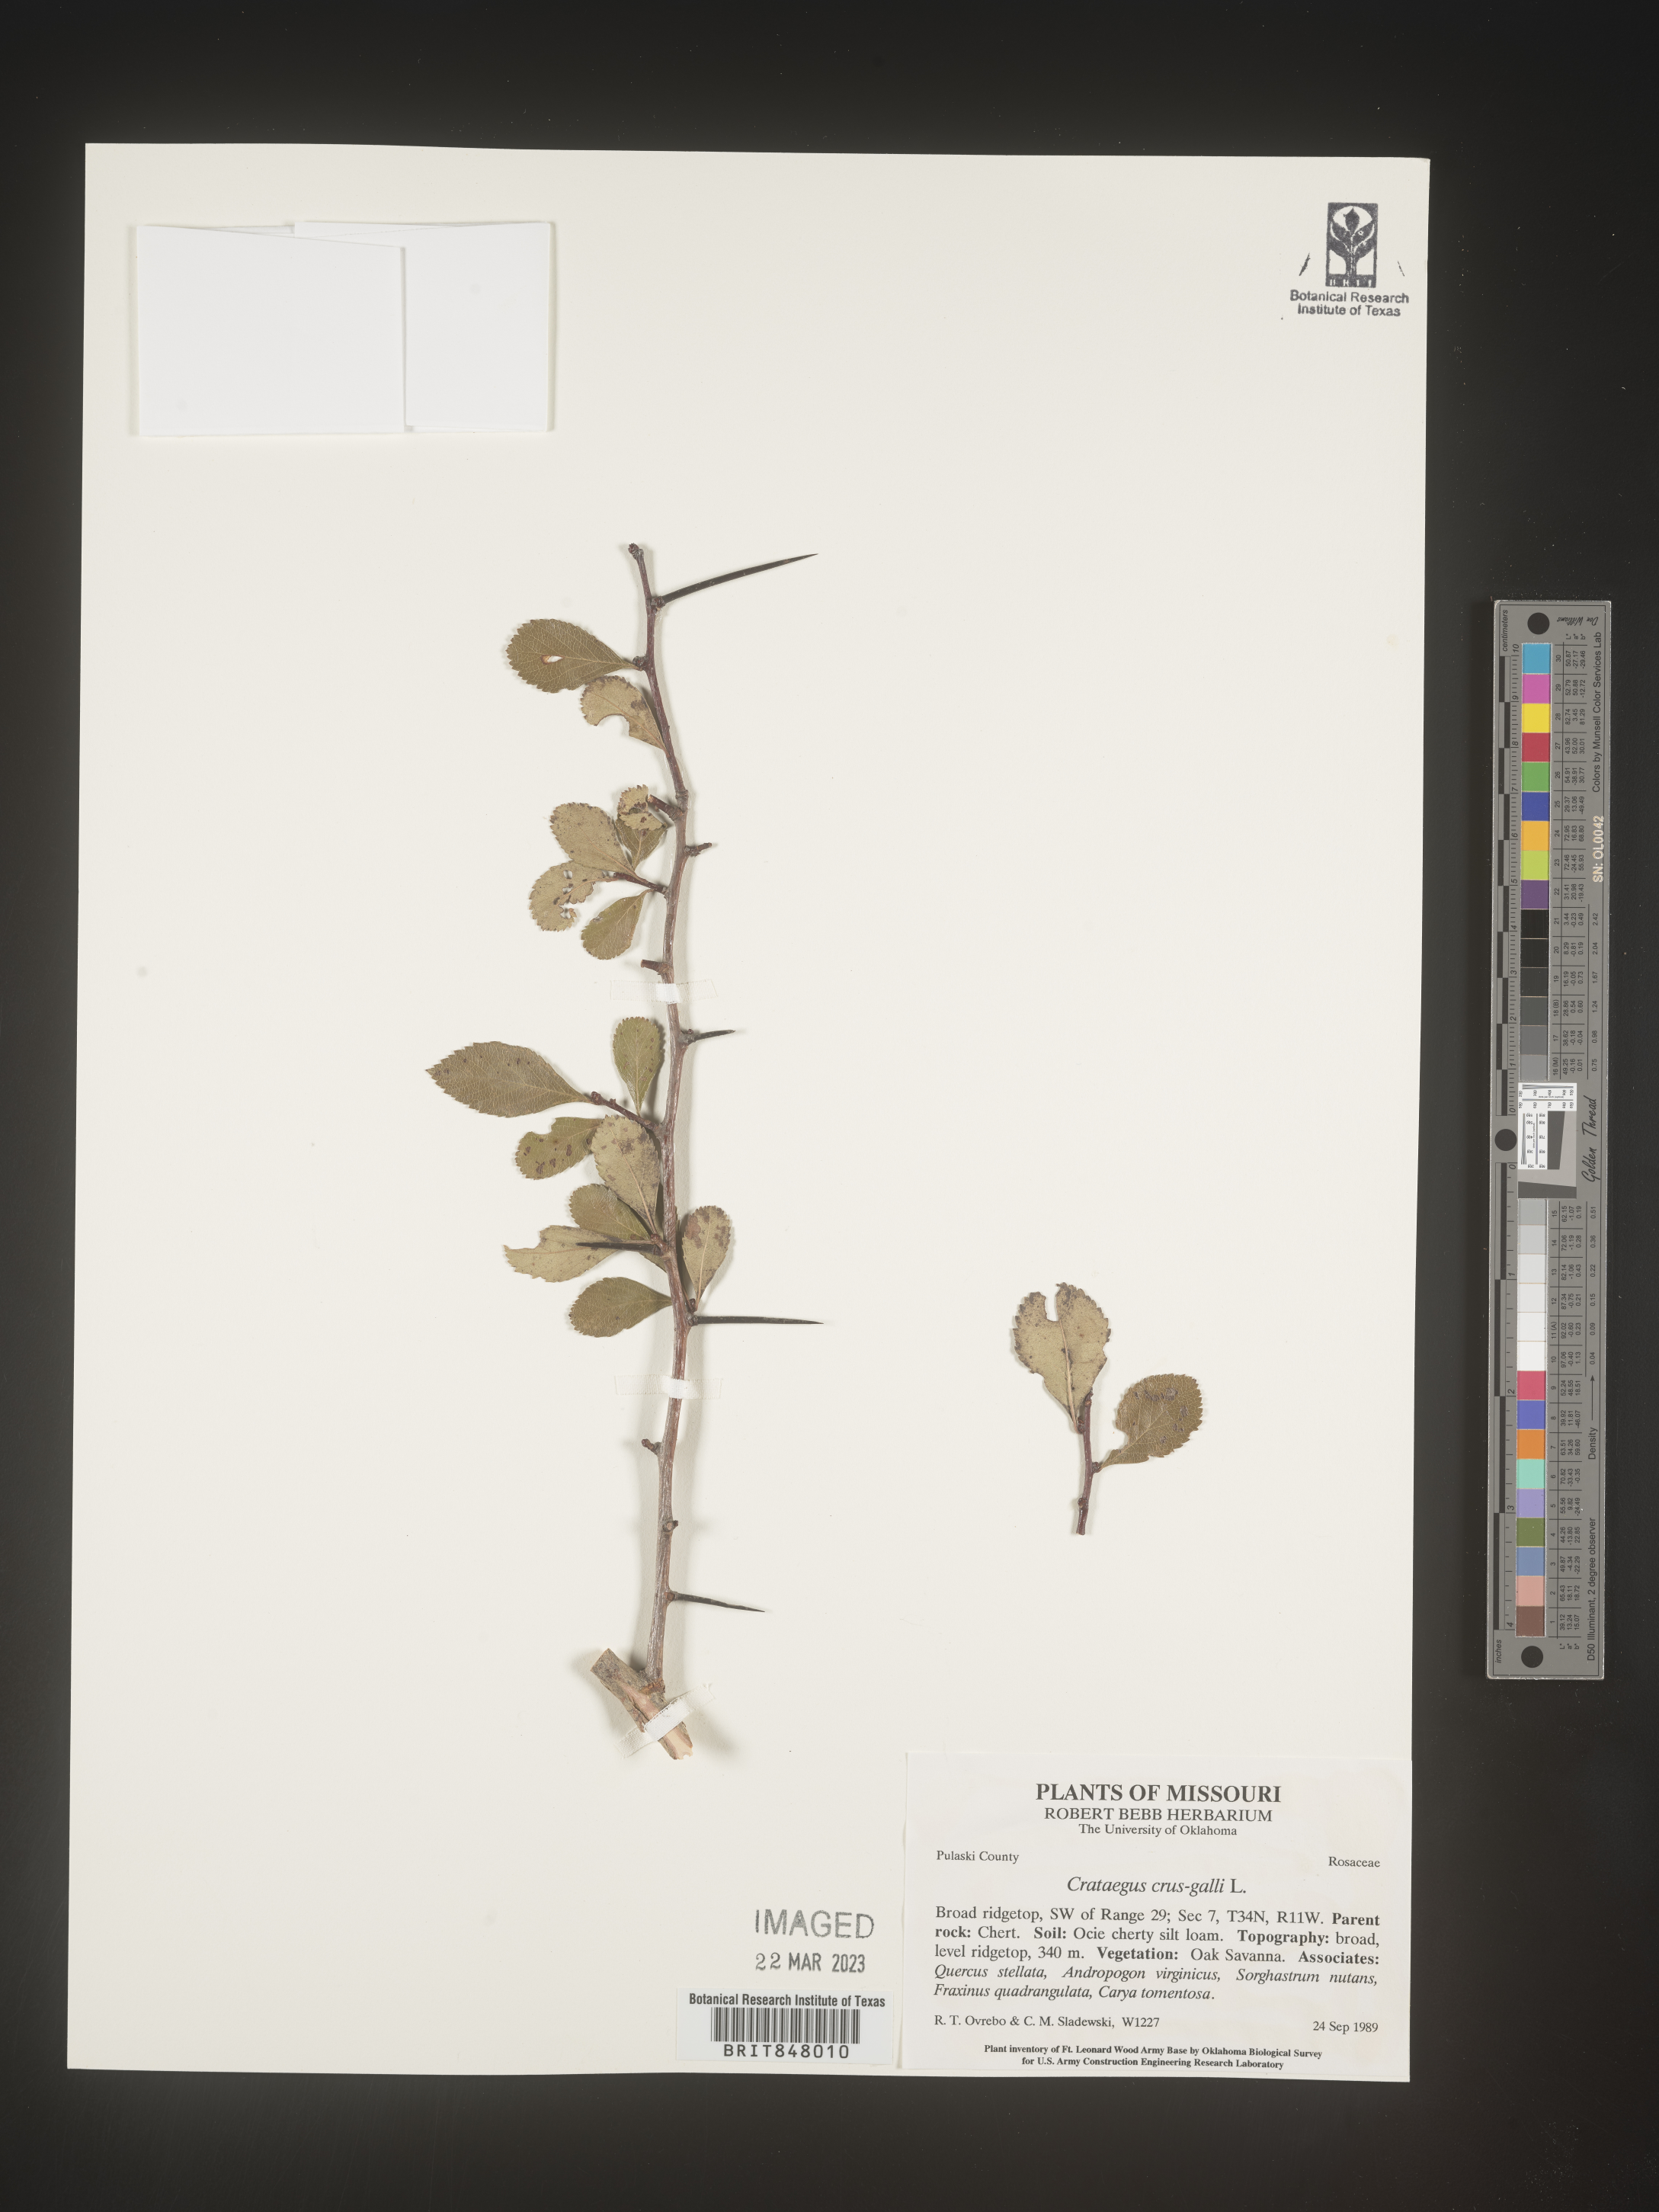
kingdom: Plantae
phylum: Tracheophyta
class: Magnoliopsida
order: Rosales
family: Rosaceae
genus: Crataegus
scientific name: Crataegus crus-galli
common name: Cockspurthorn
